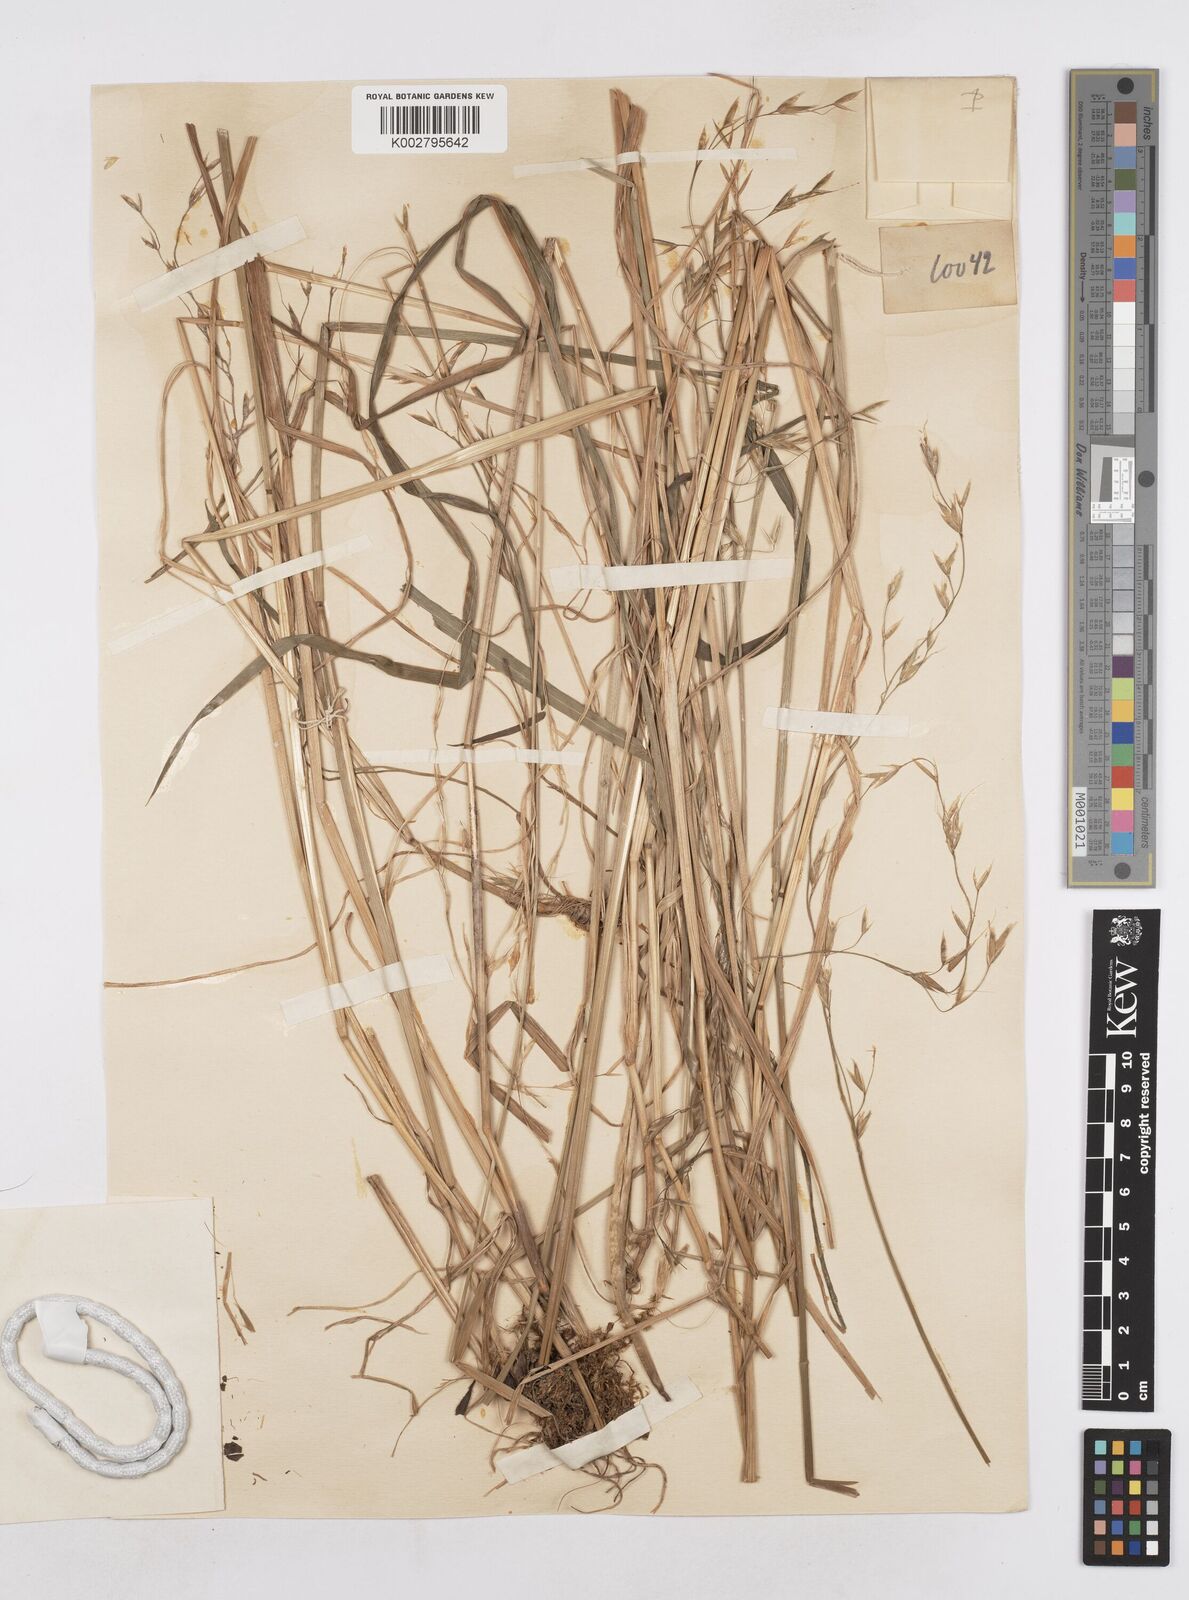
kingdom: Plantae
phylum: Tracheophyta
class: Liliopsida
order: Poales
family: Poaceae
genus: Trisetopsis
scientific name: Trisetopsis junghuhnii
